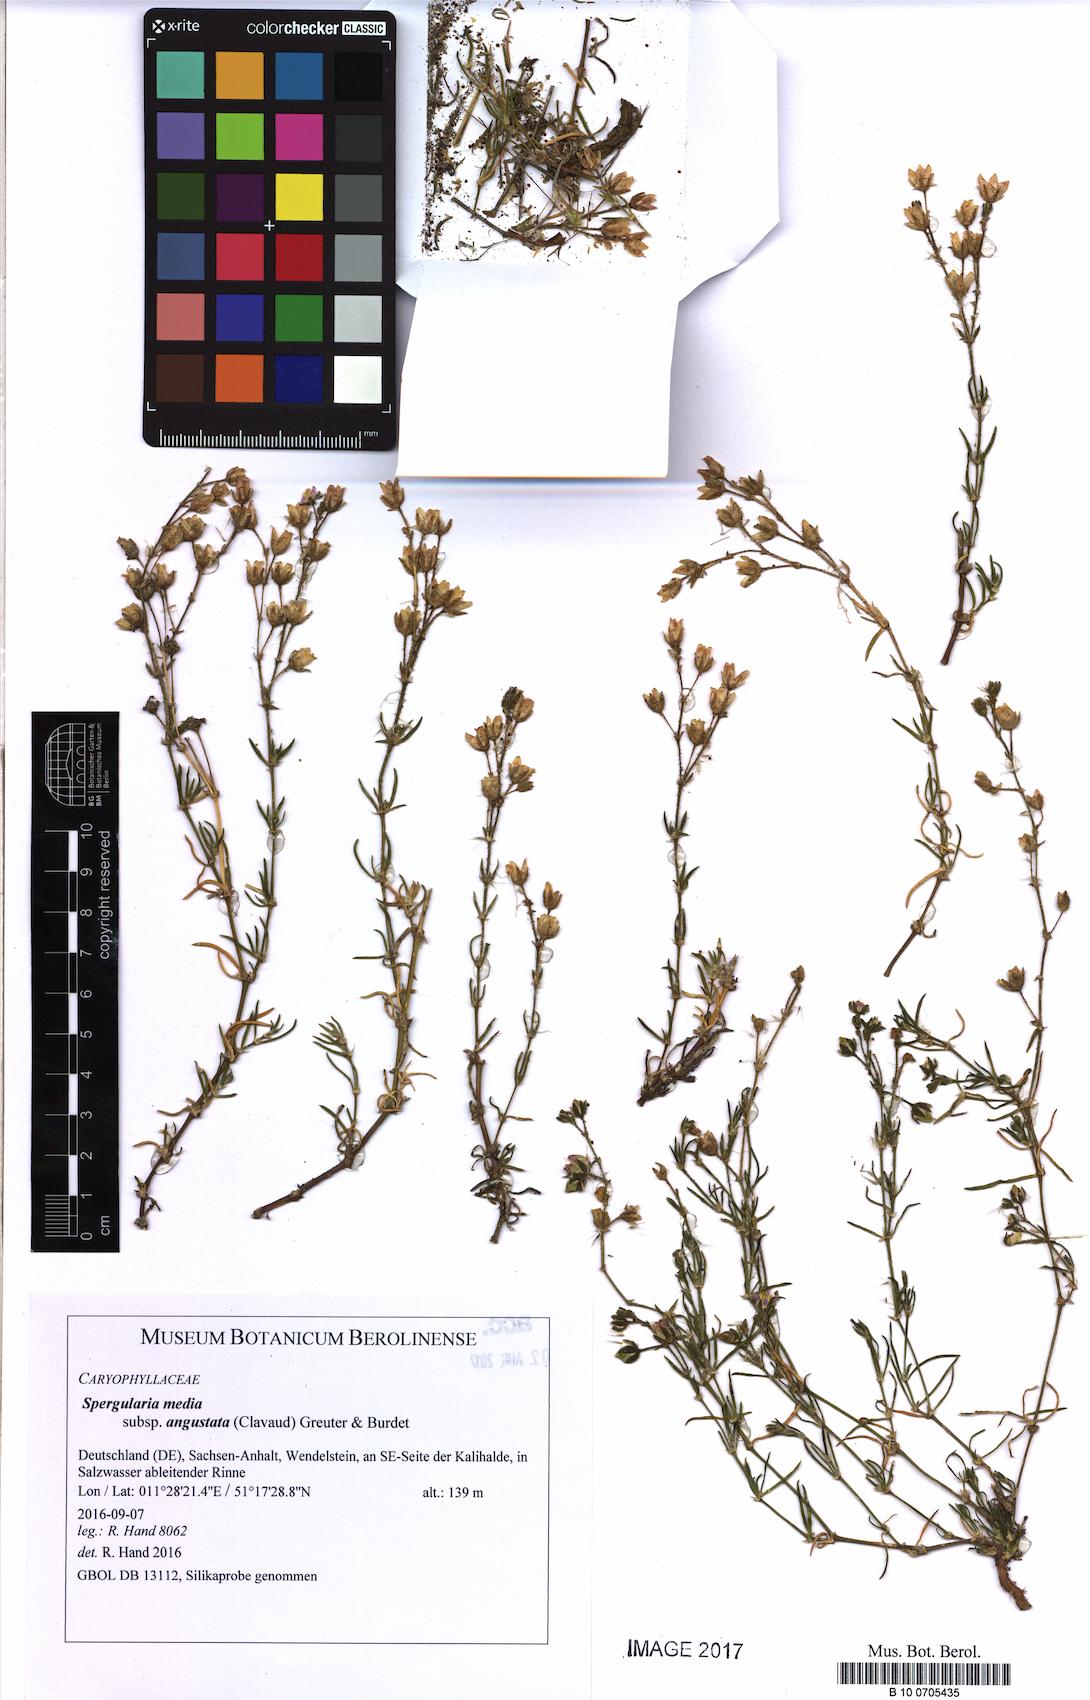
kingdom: Plantae
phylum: Tracheophyta
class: Magnoliopsida
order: Caryophyllales
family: Caryophyllaceae
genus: Spergularia
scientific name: Spergularia media
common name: Greater sea-spurrey
